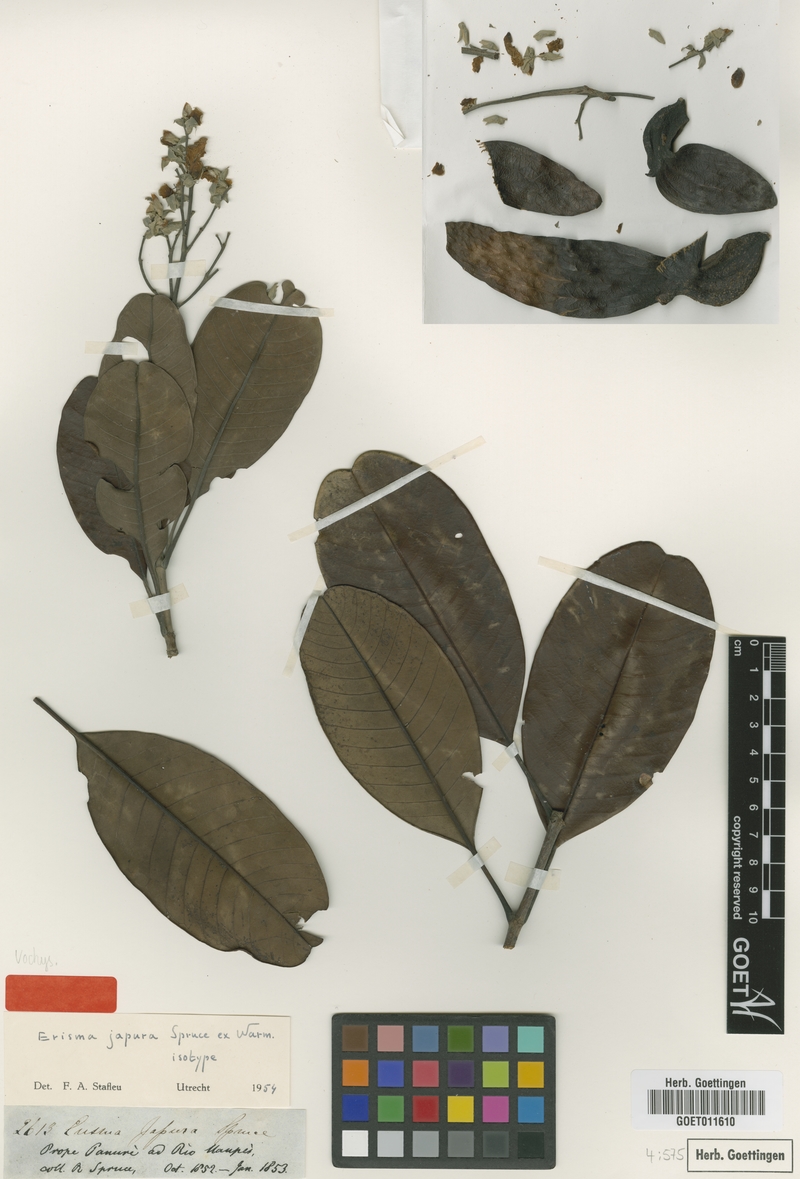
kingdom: Plantae
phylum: Tracheophyta
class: Magnoliopsida
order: Myrtales
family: Vochysiaceae
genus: Erisma
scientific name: Erisma japura
